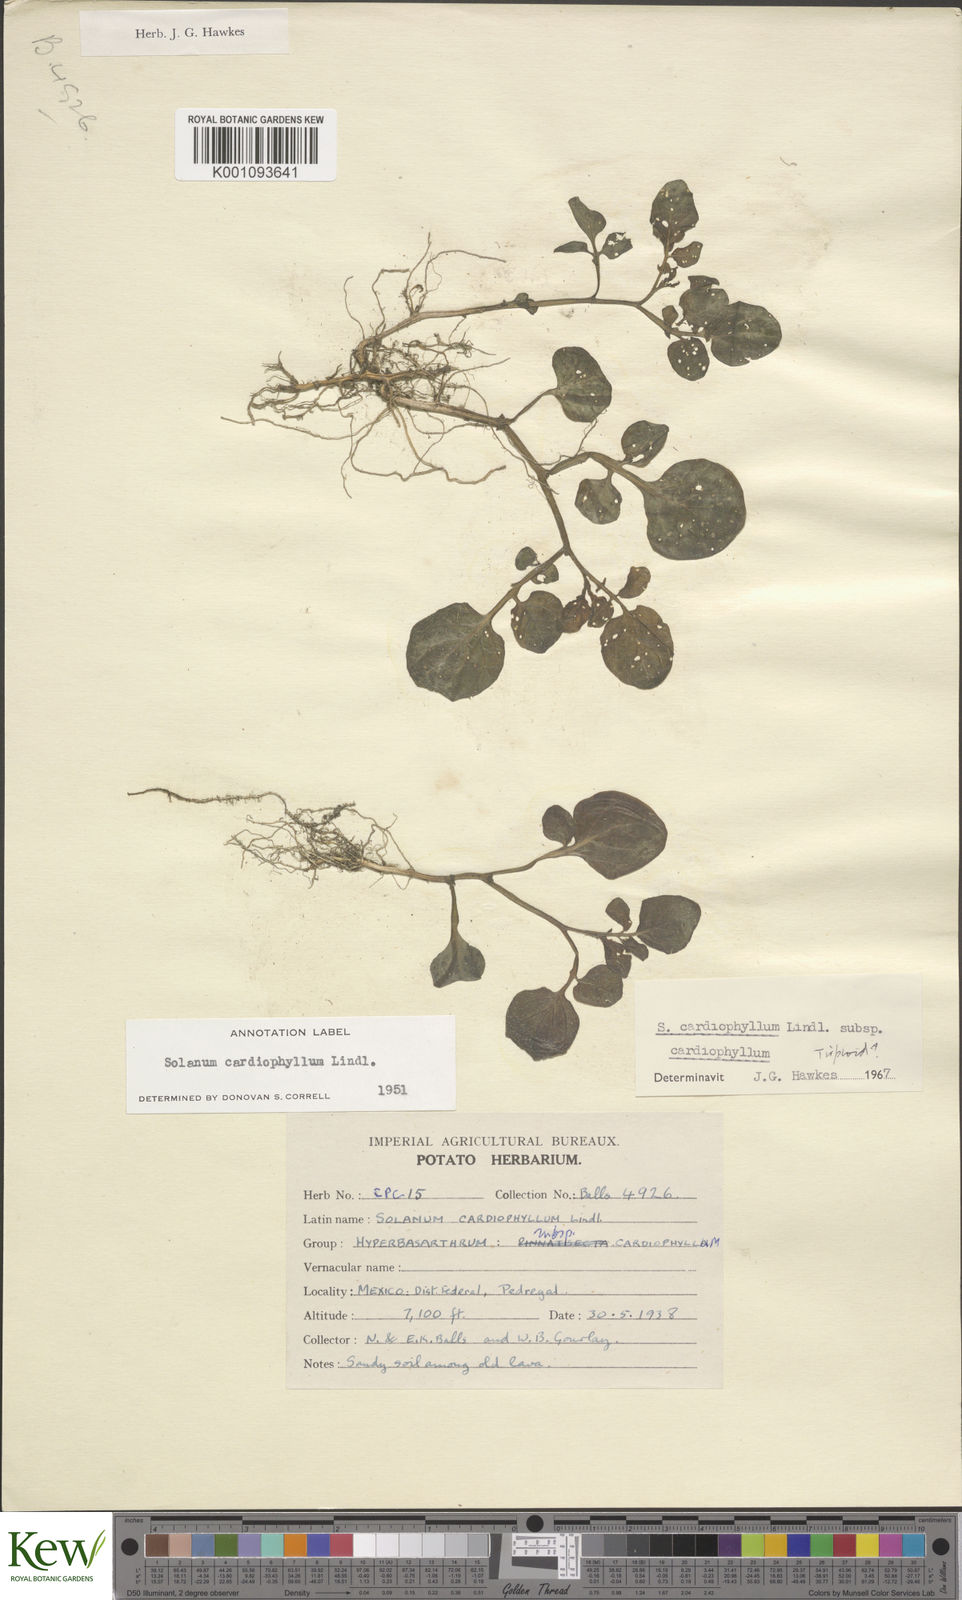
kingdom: Plantae
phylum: Tracheophyta
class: Magnoliopsida
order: Solanales
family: Solanaceae
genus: Solanum
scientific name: Solanum cardiophyllum
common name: Heartleaf horsenettle
